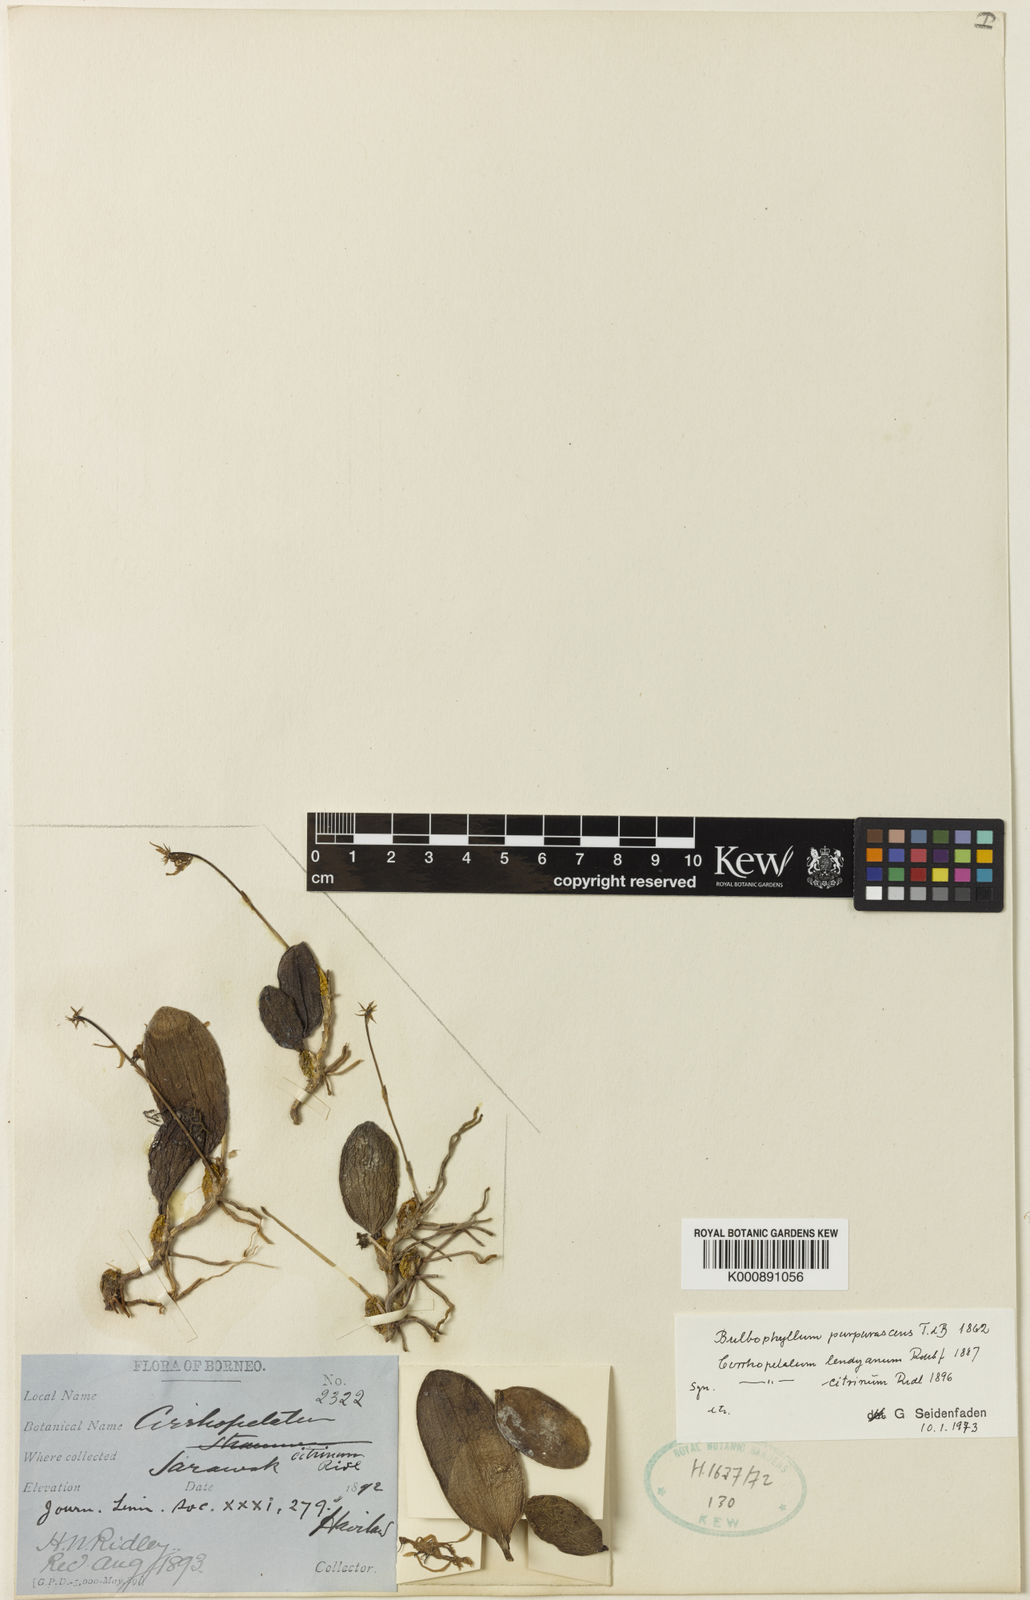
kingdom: Plantae
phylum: Tracheophyta
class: Liliopsida
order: Asparagales
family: Orchidaceae
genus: Bulbophyllum
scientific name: Bulbophyllum purpurascens
